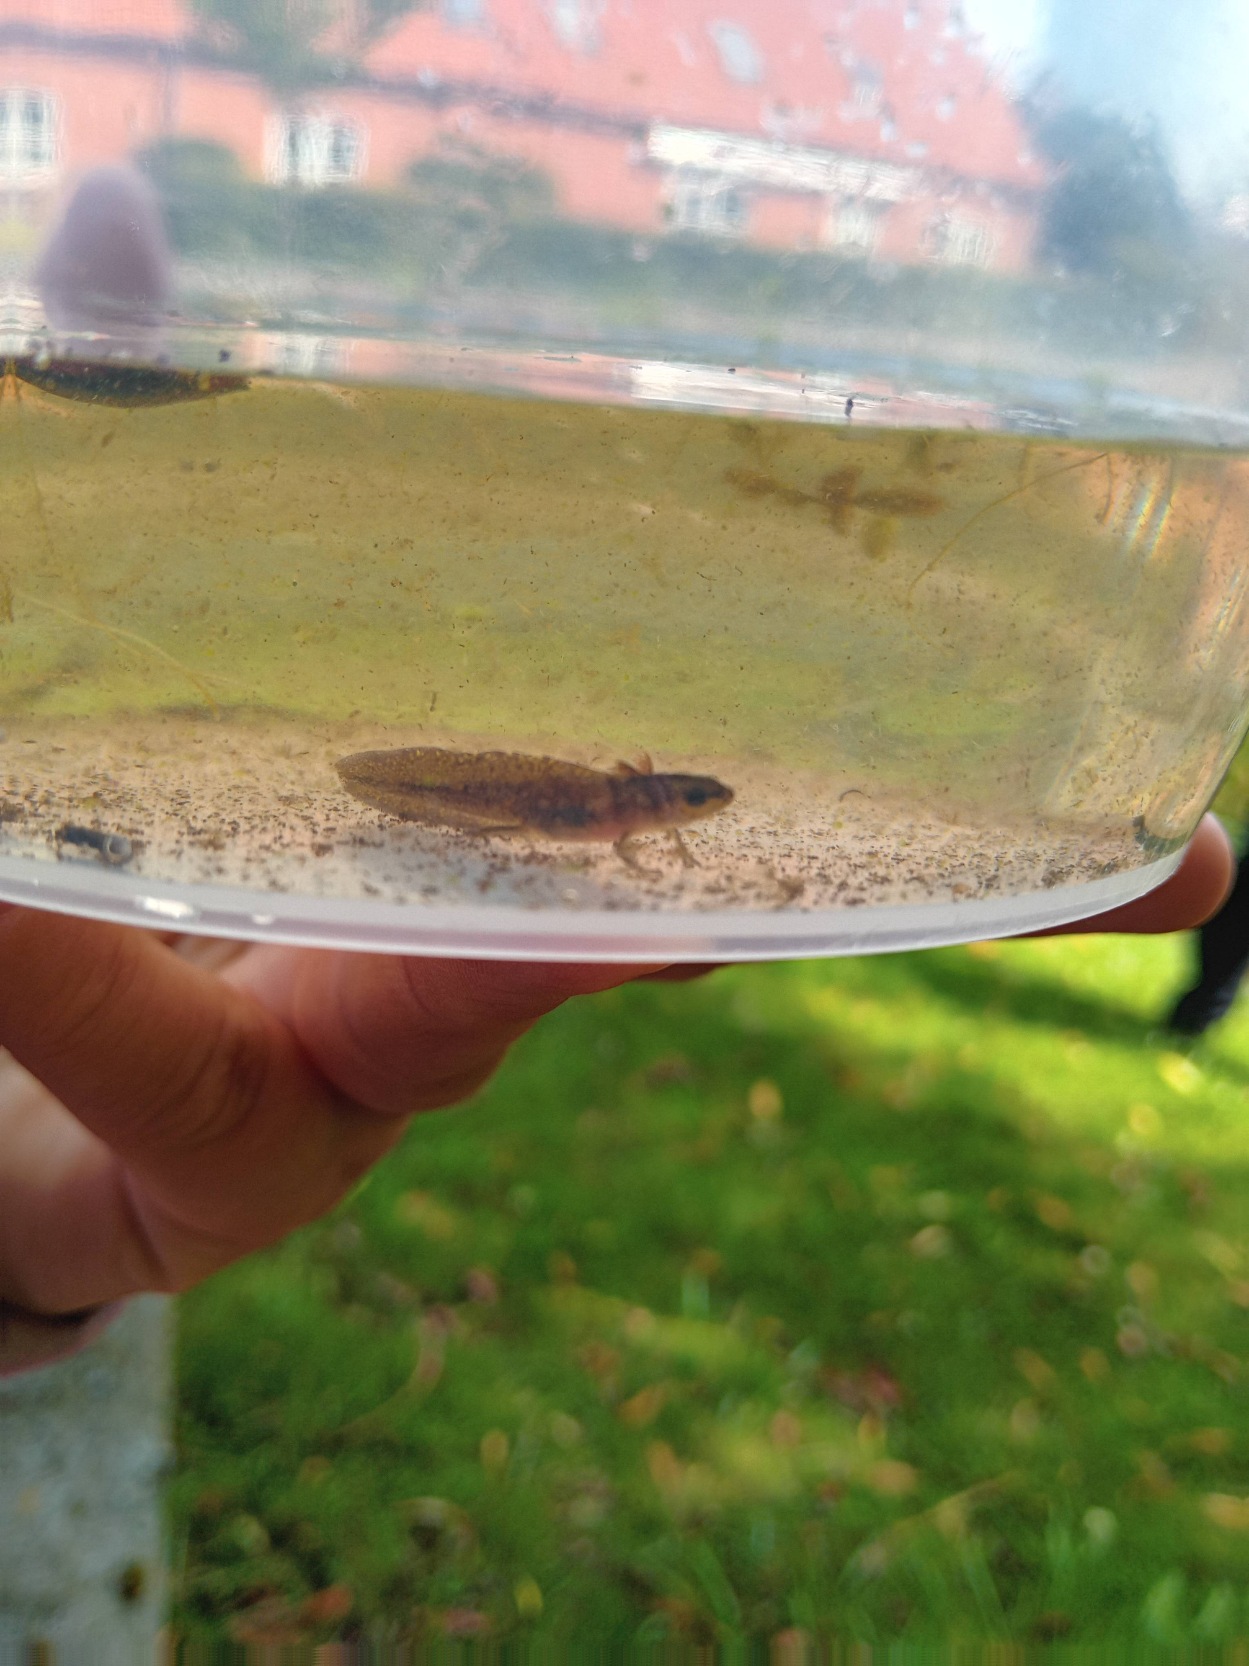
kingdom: Animalia
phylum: Chordata
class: Amphibia
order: Caudata
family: Salamandridae
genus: Lissotriton
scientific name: Lissotriton vulgaris
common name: Lille vandsalamander
